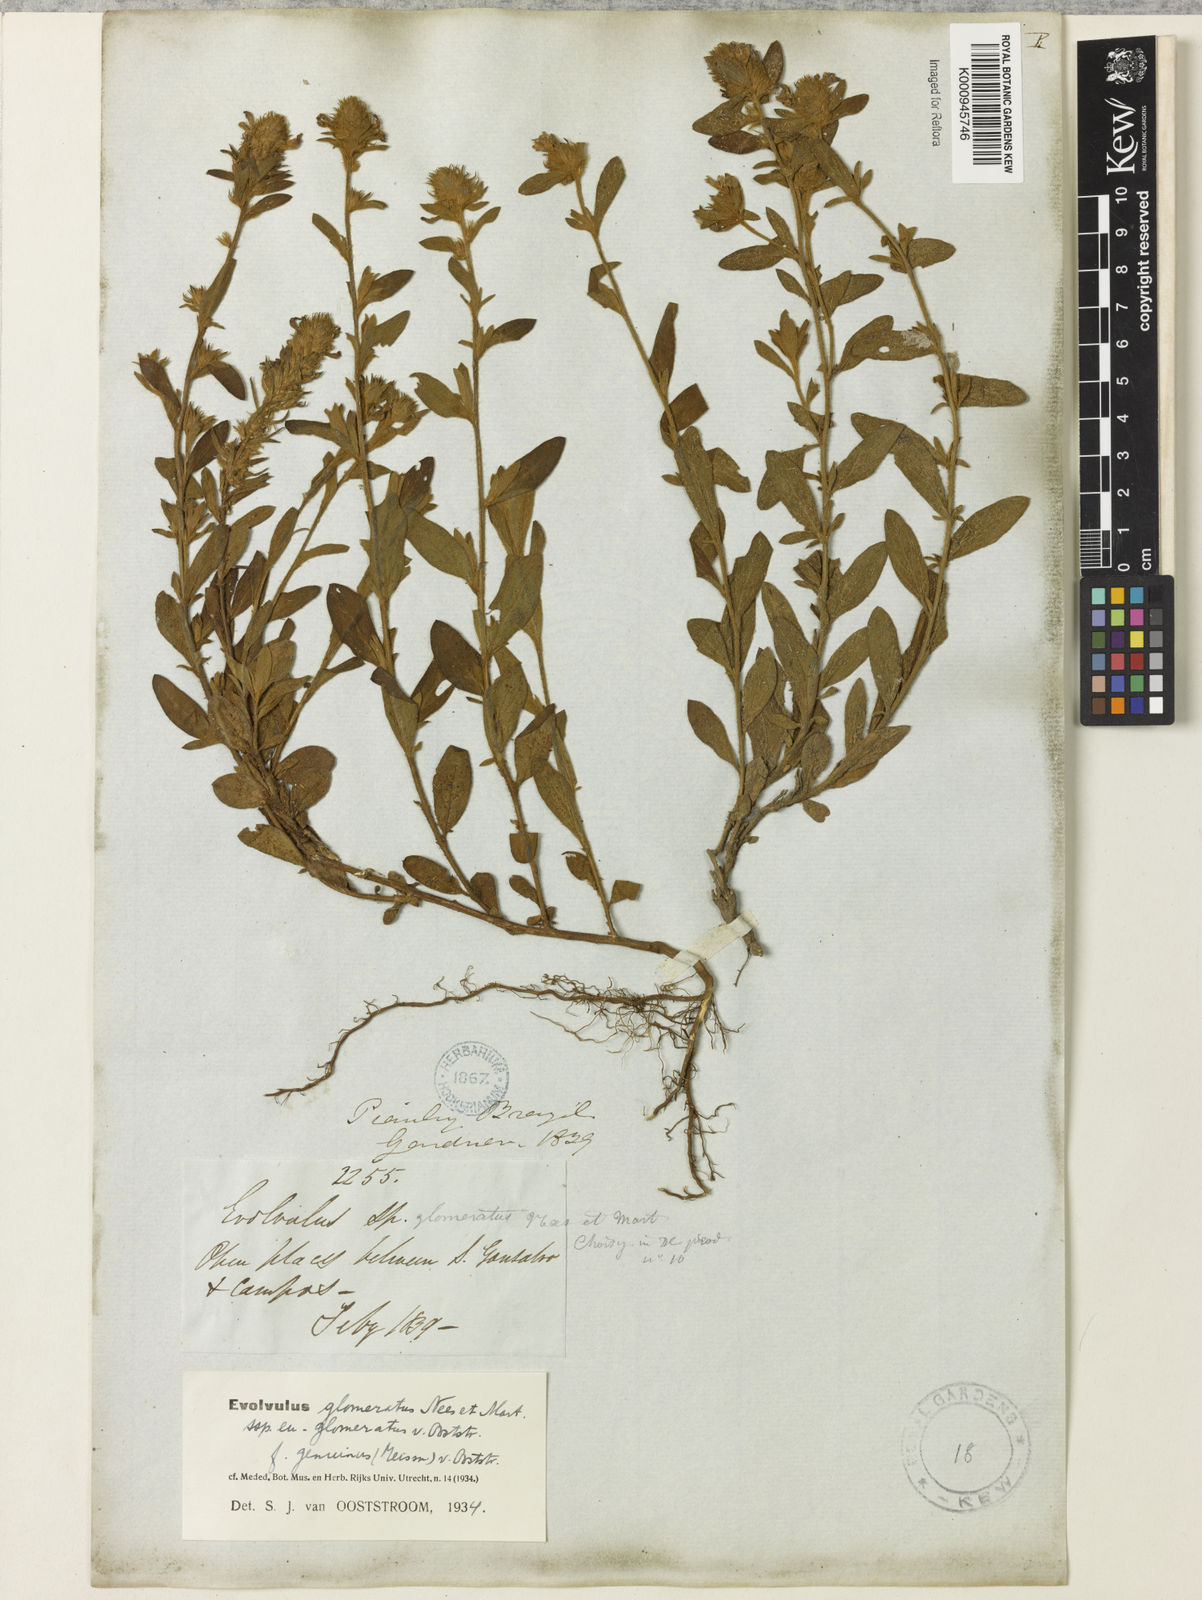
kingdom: Plantae
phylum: Tracheophyta
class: Magnoliopsida
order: Solanales
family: Convolvulaceae
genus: Evolvulus
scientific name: Evolvulus glomeratus
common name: Brazilian dwarf morning-glory
